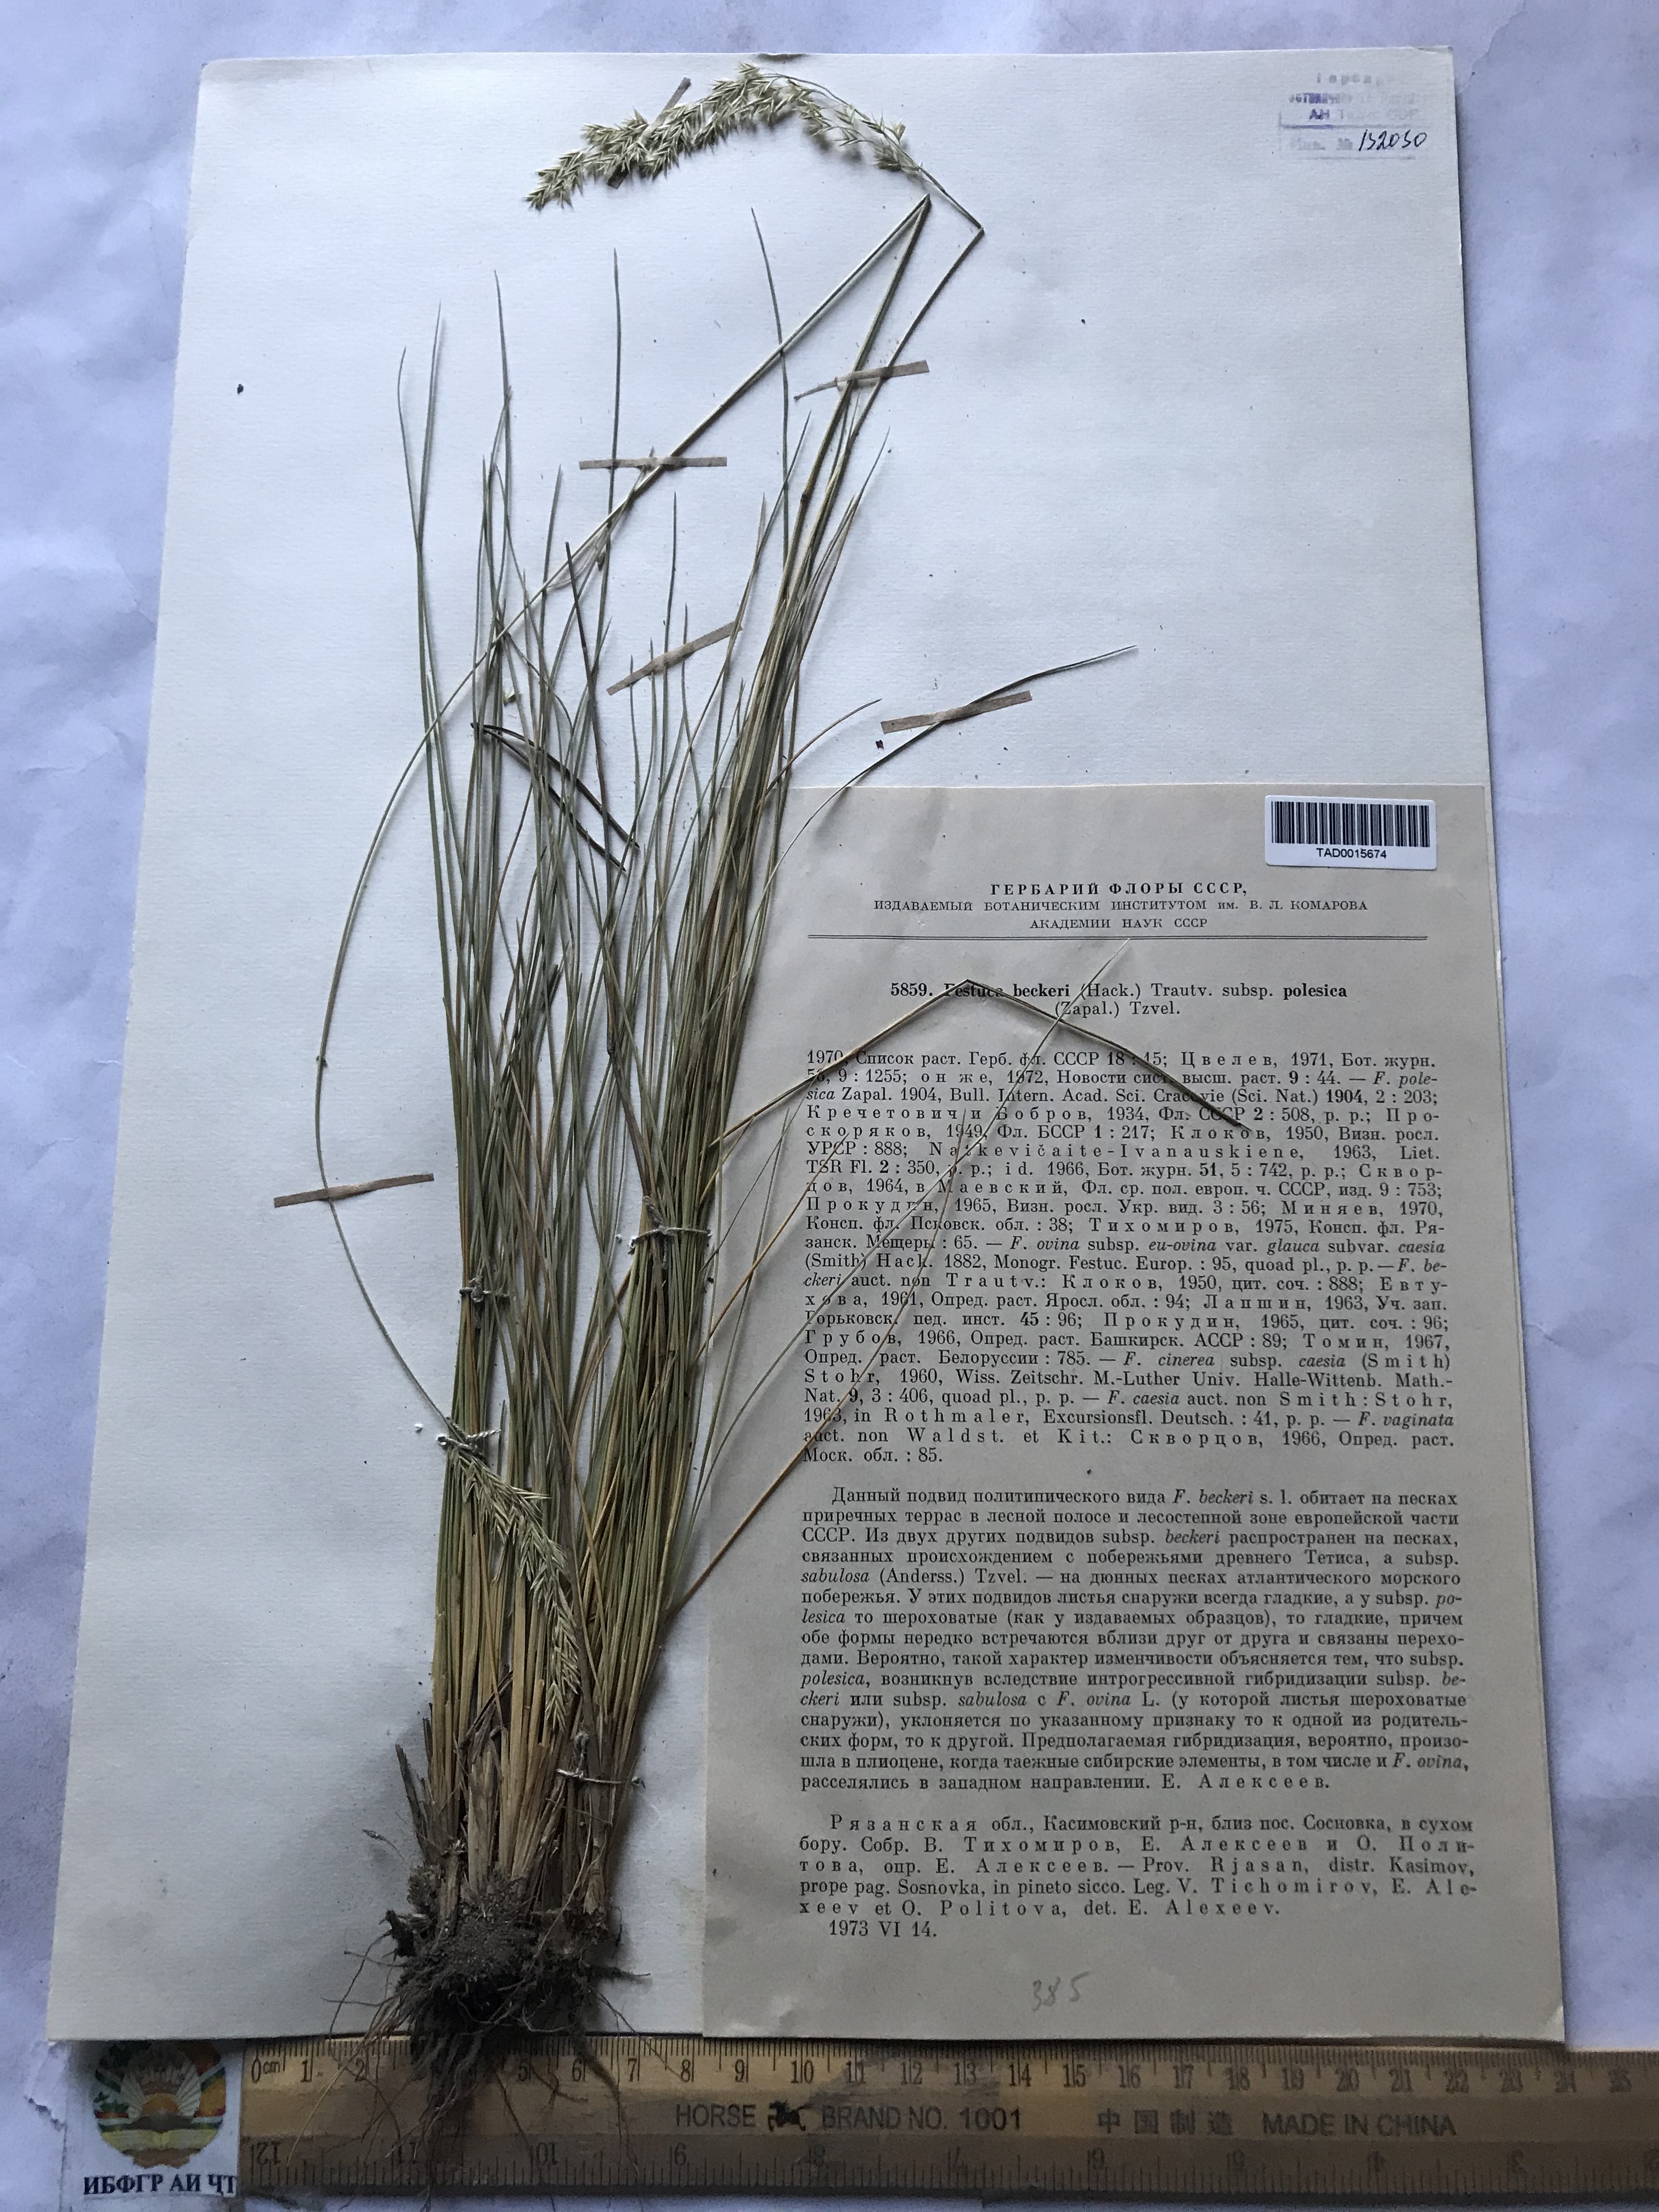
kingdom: Plantae
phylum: Tracheophyta
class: Liliopsida
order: Poales
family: Poaceae
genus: Festuca
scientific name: Festuca beckeri
